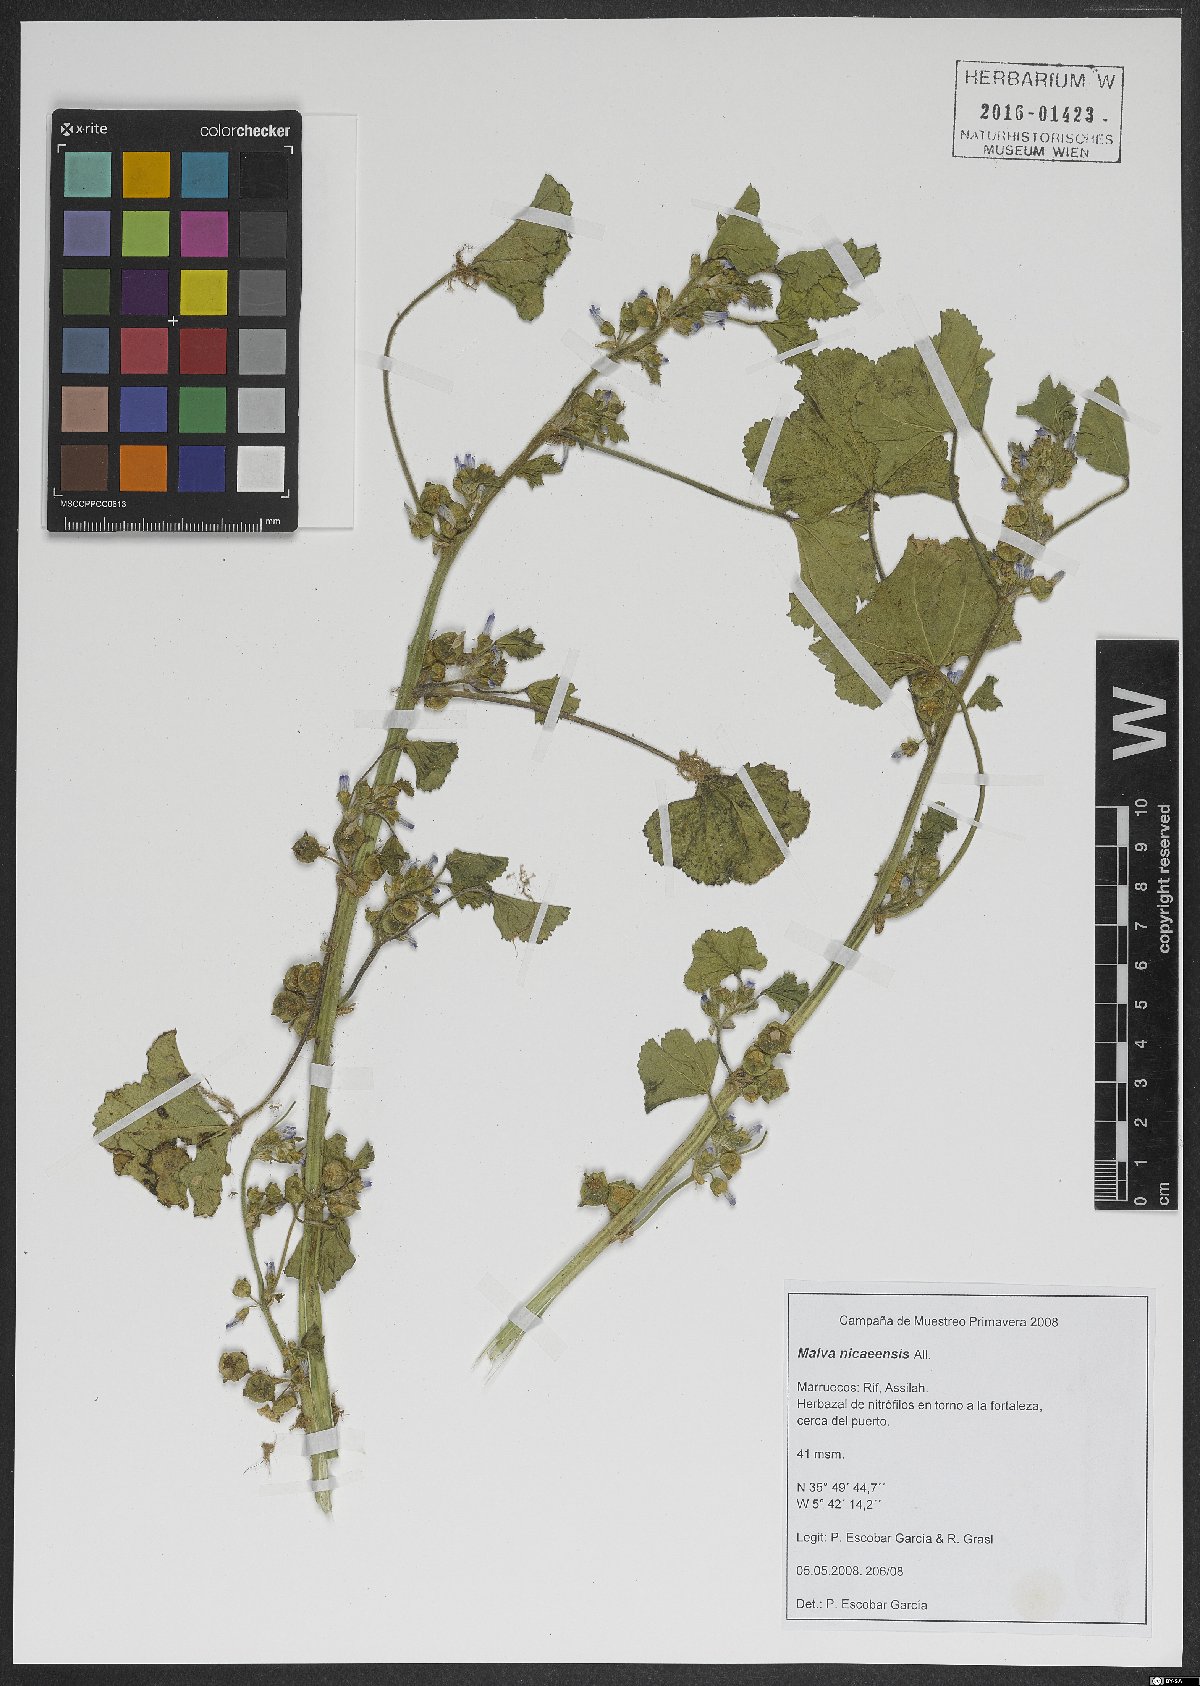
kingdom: Plantae
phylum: Tracheophyta
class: Magnoliopsida
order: Malvales
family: Malvaceae
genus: Malva
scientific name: Malva nicaeensis
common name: French mallow
